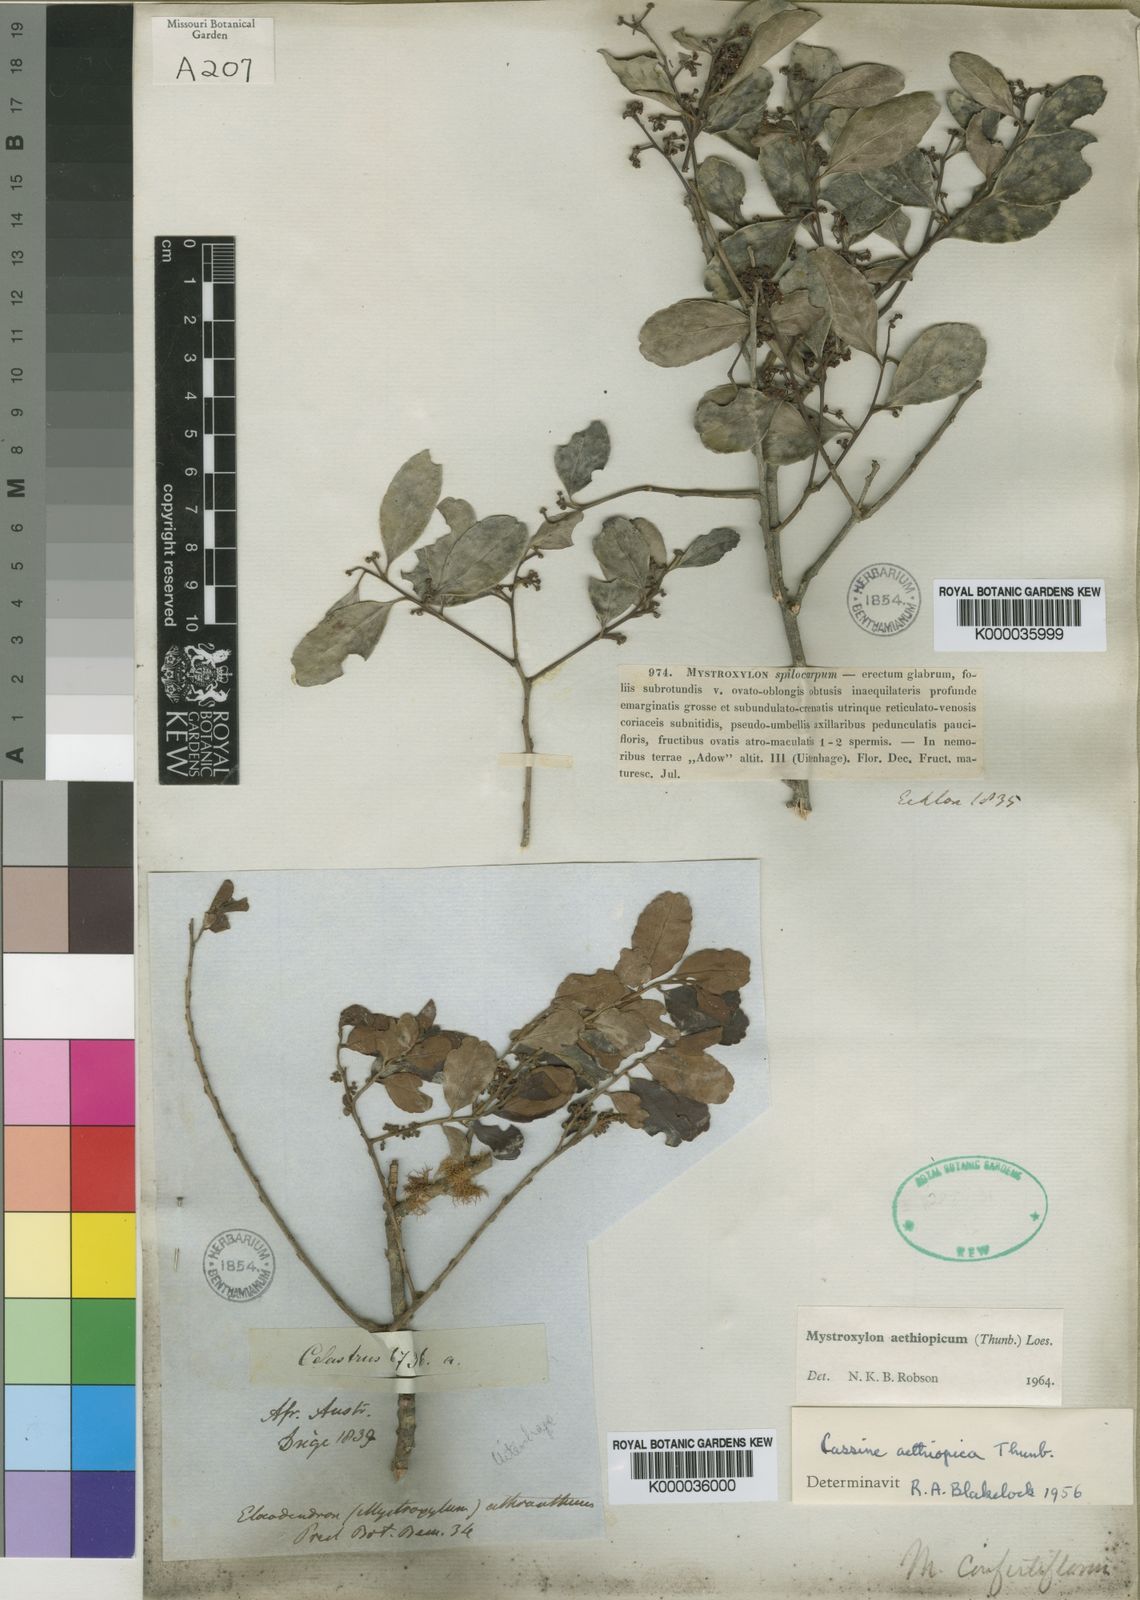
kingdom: Plantae
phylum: Tracheophyta
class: Magnoliopsida
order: Celastrales
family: Celastraceae
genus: Mystroxylon
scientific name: Mystroxylon aethiopicum
